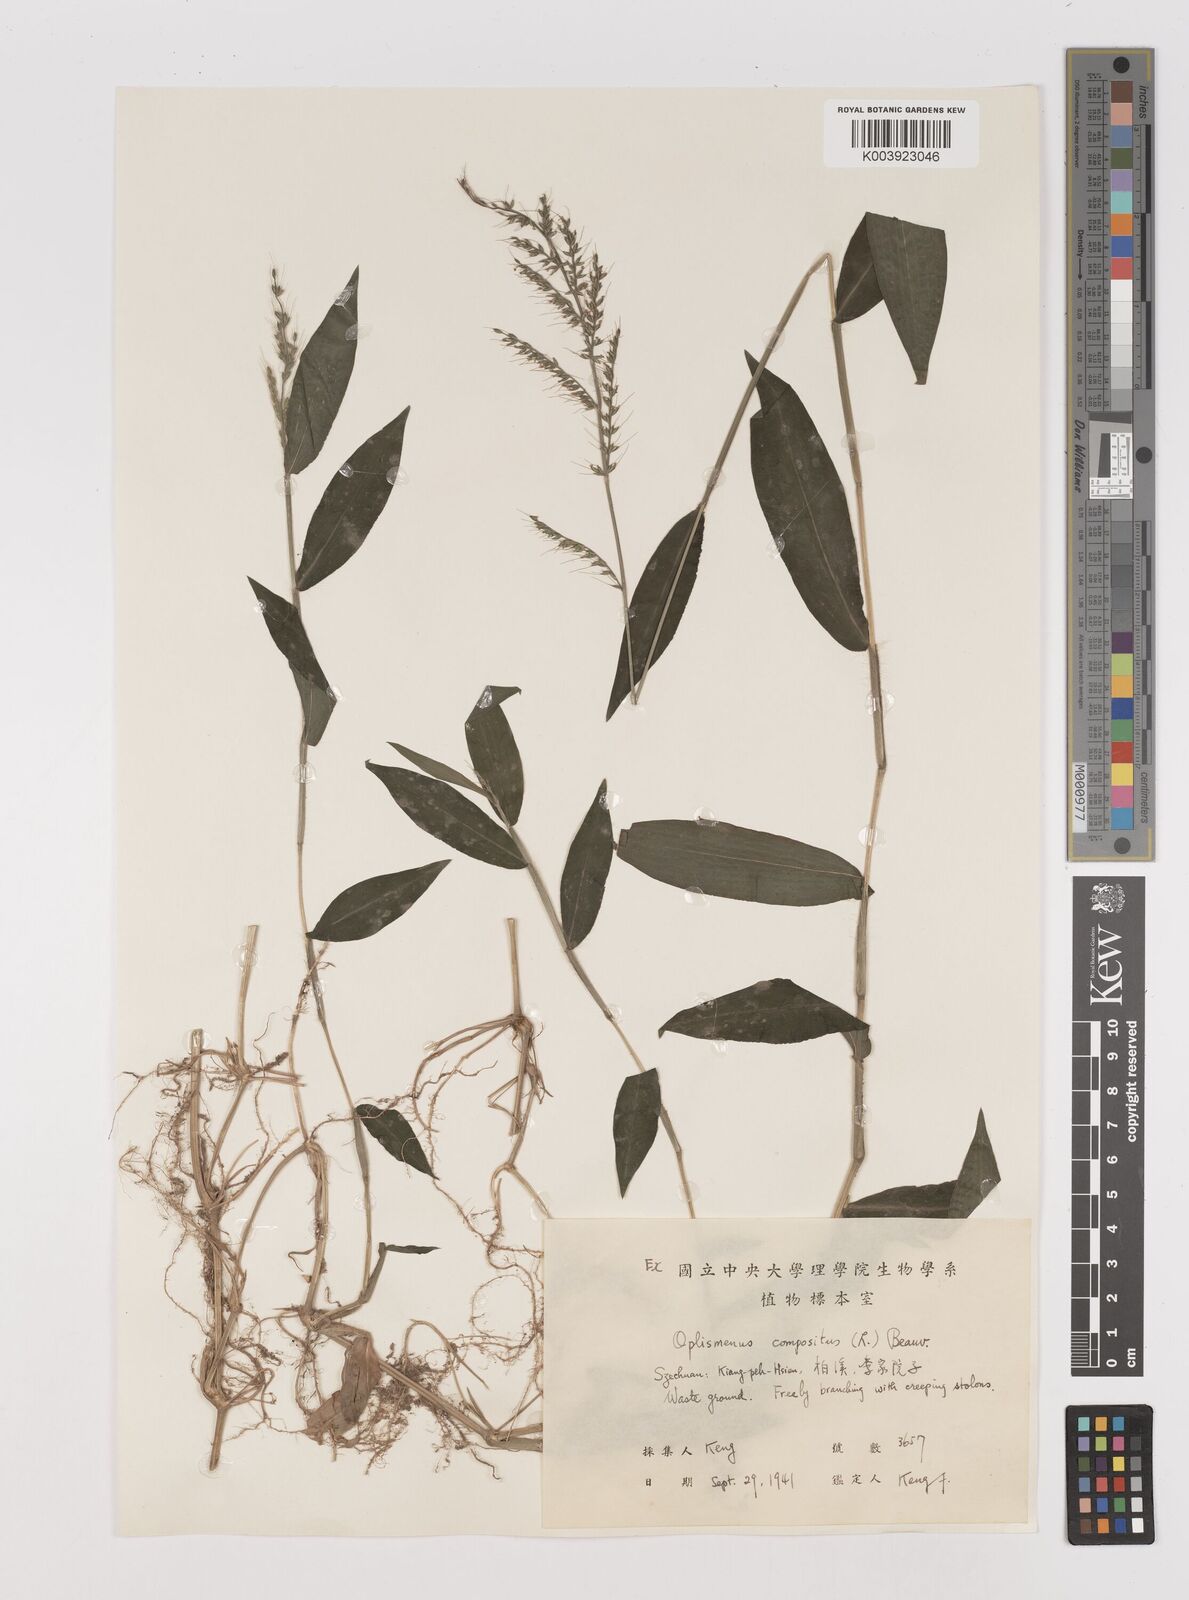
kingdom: Plantae
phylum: Tracheophyta
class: Liliopsida
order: Poales
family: Poaceae
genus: Oplismenus
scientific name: Oplismenus compositus
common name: Running mountain grass
